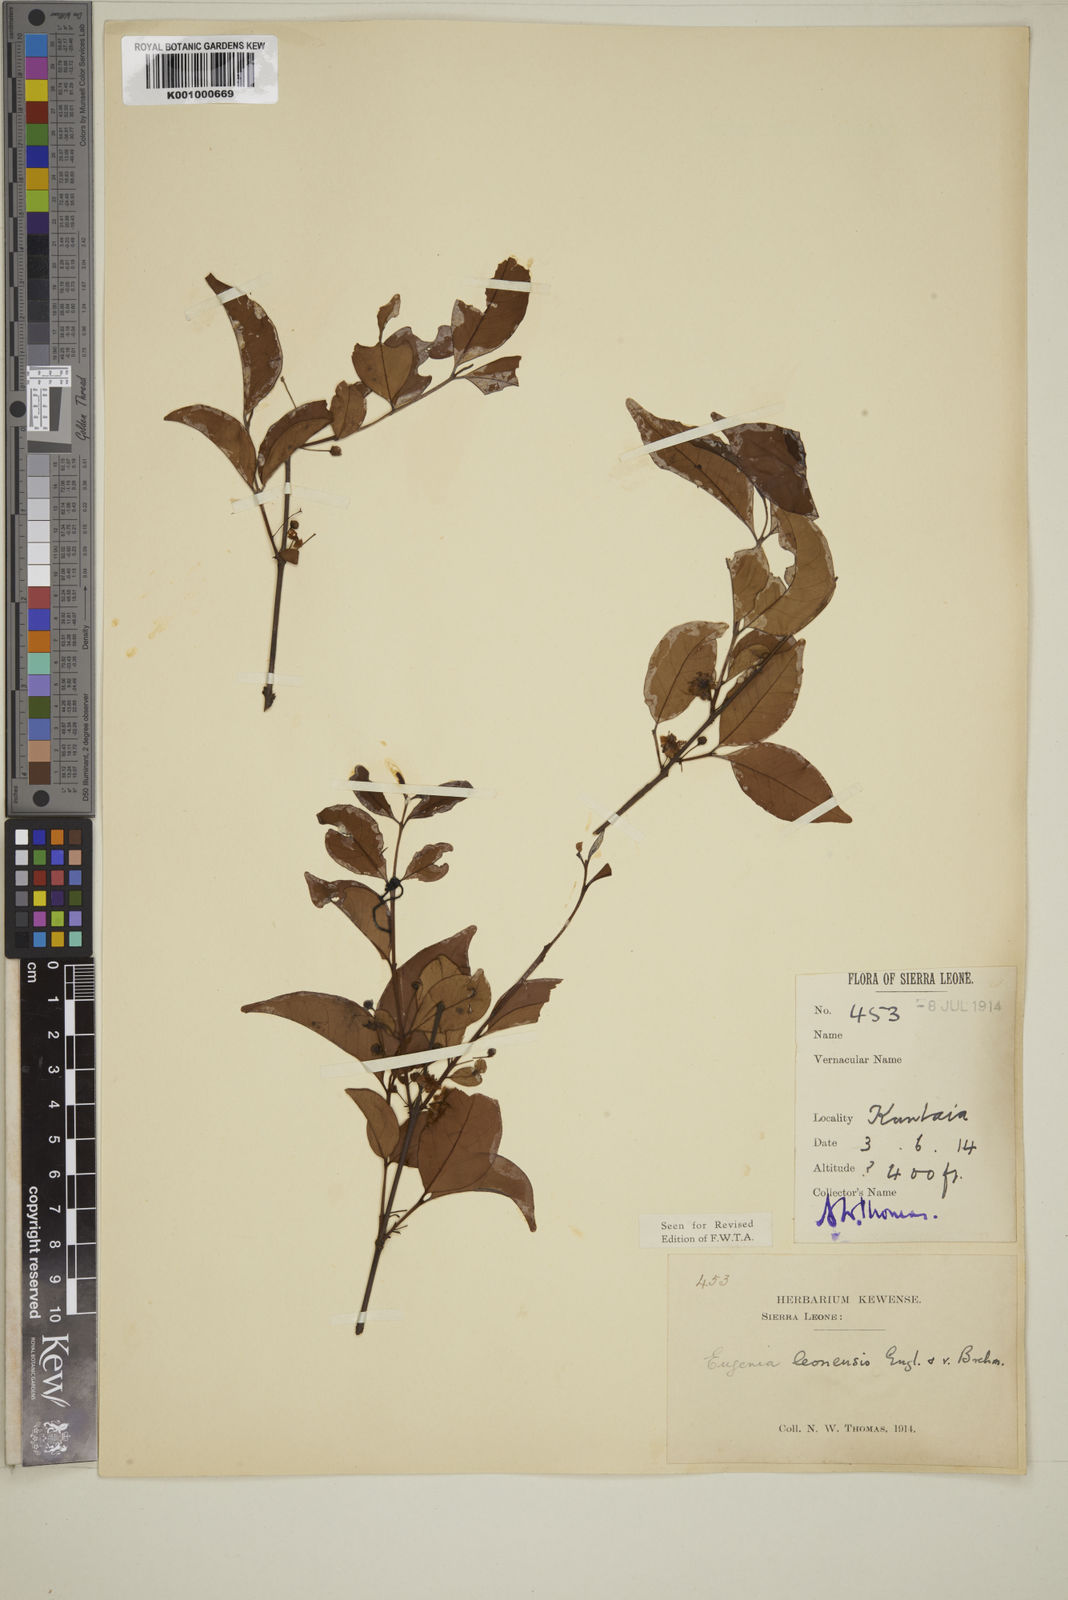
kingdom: Plantae
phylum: Tracheophyta
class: Magnoliopsida
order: Myrtales
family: Myrtaceae
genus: Eugenia
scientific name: Eugenia leonensis
